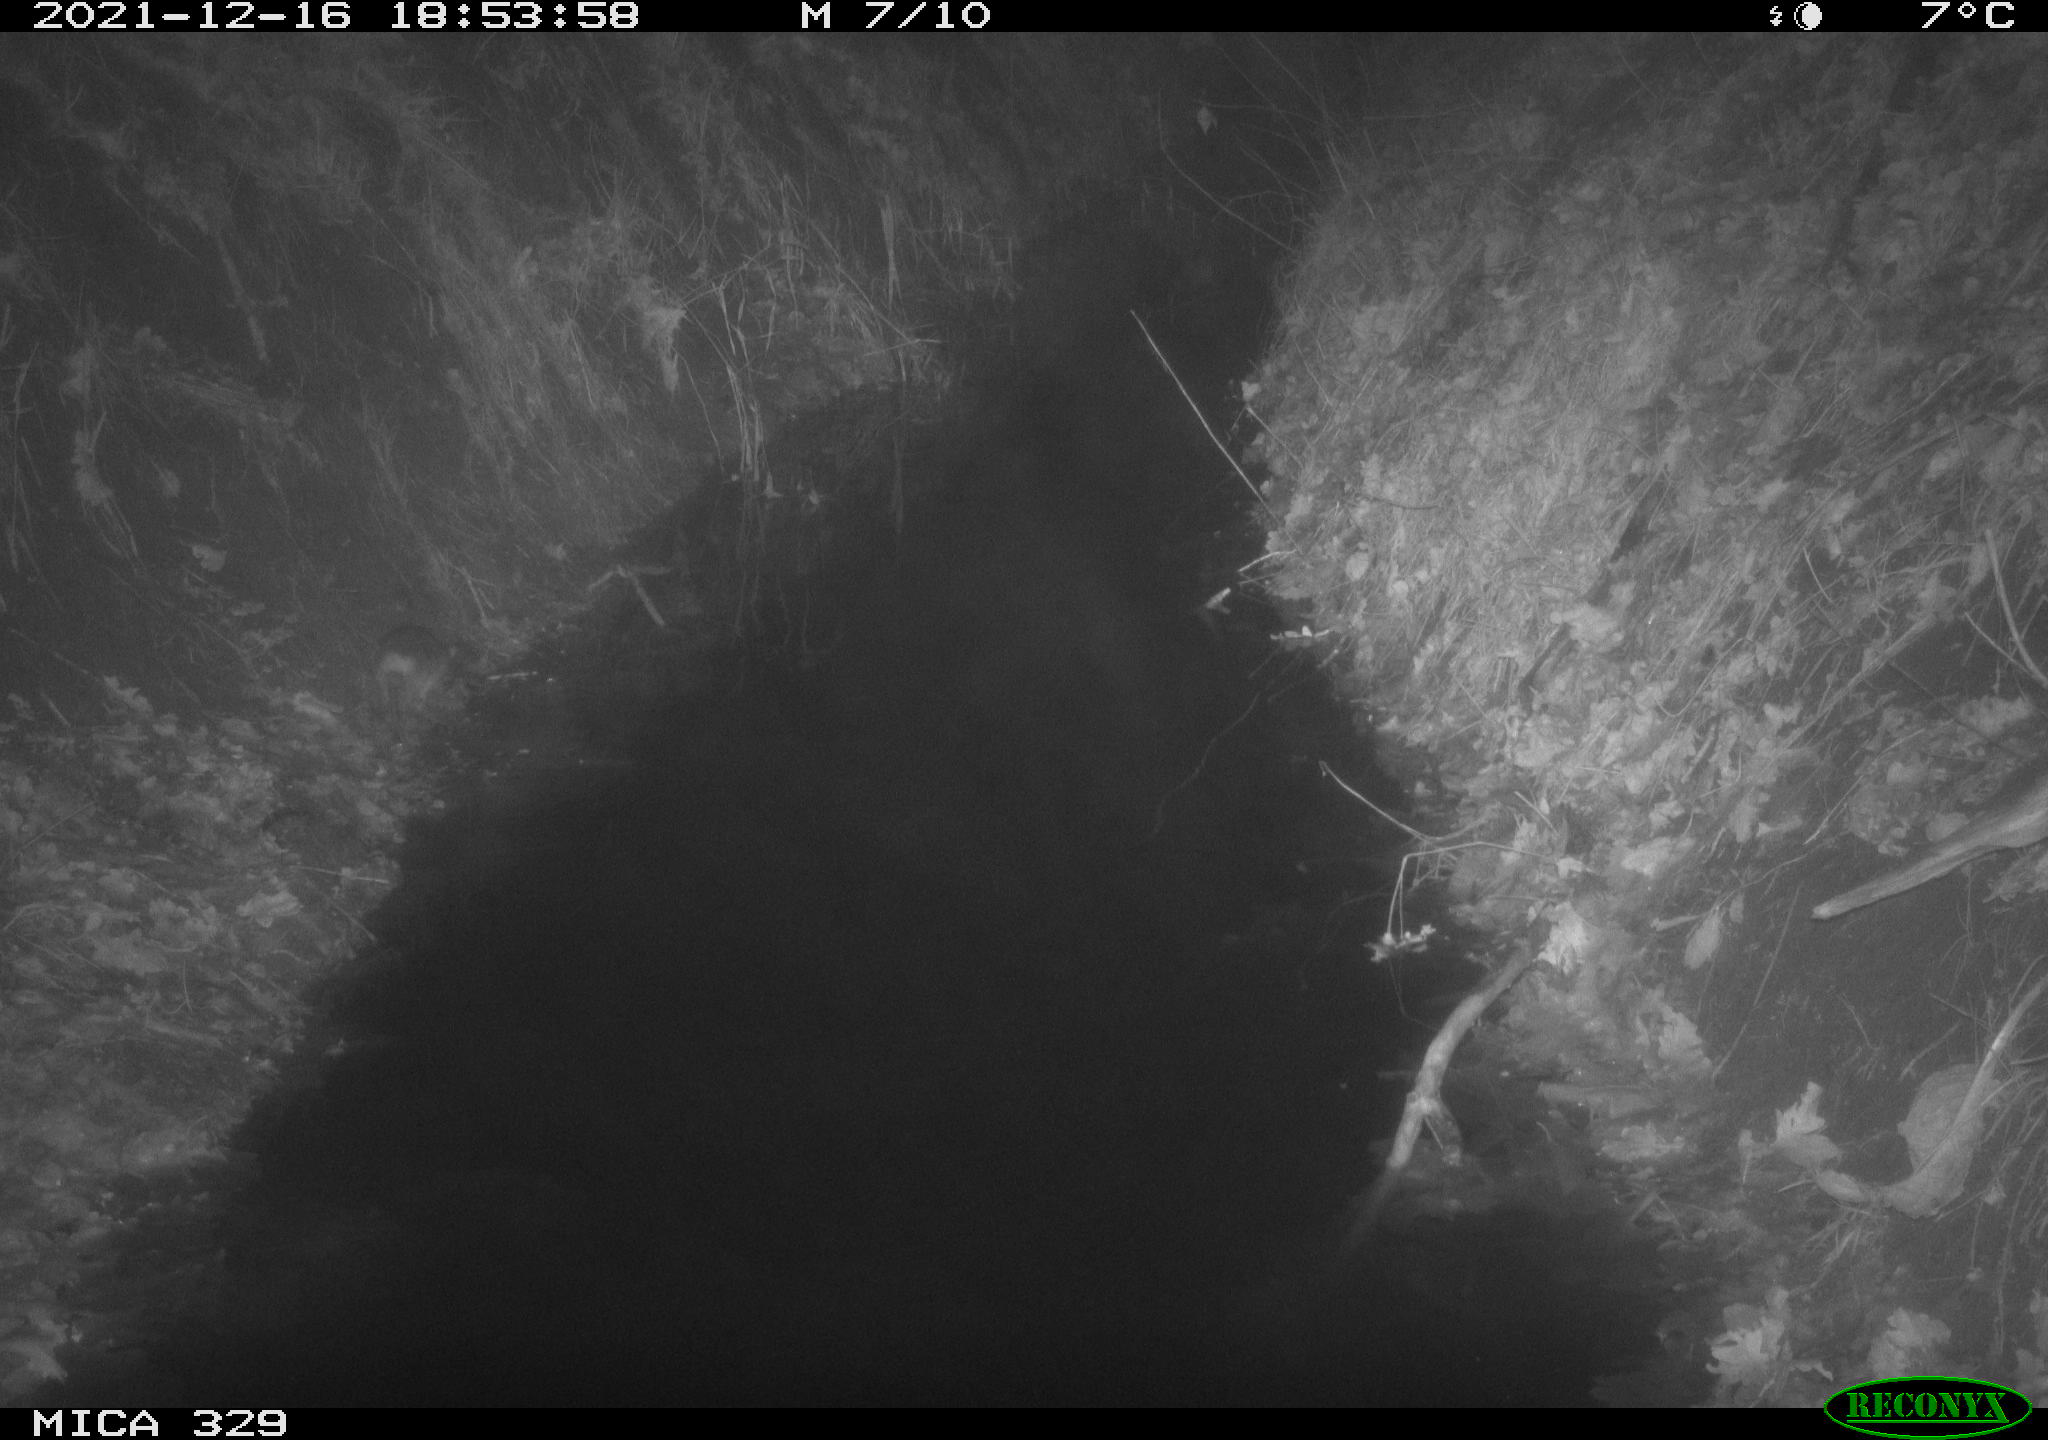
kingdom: Animalia
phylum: Chordata
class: Mammalia
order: Rodentia
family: Muridae
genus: Rattus
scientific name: Rattus norvegicus
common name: Brown rat
